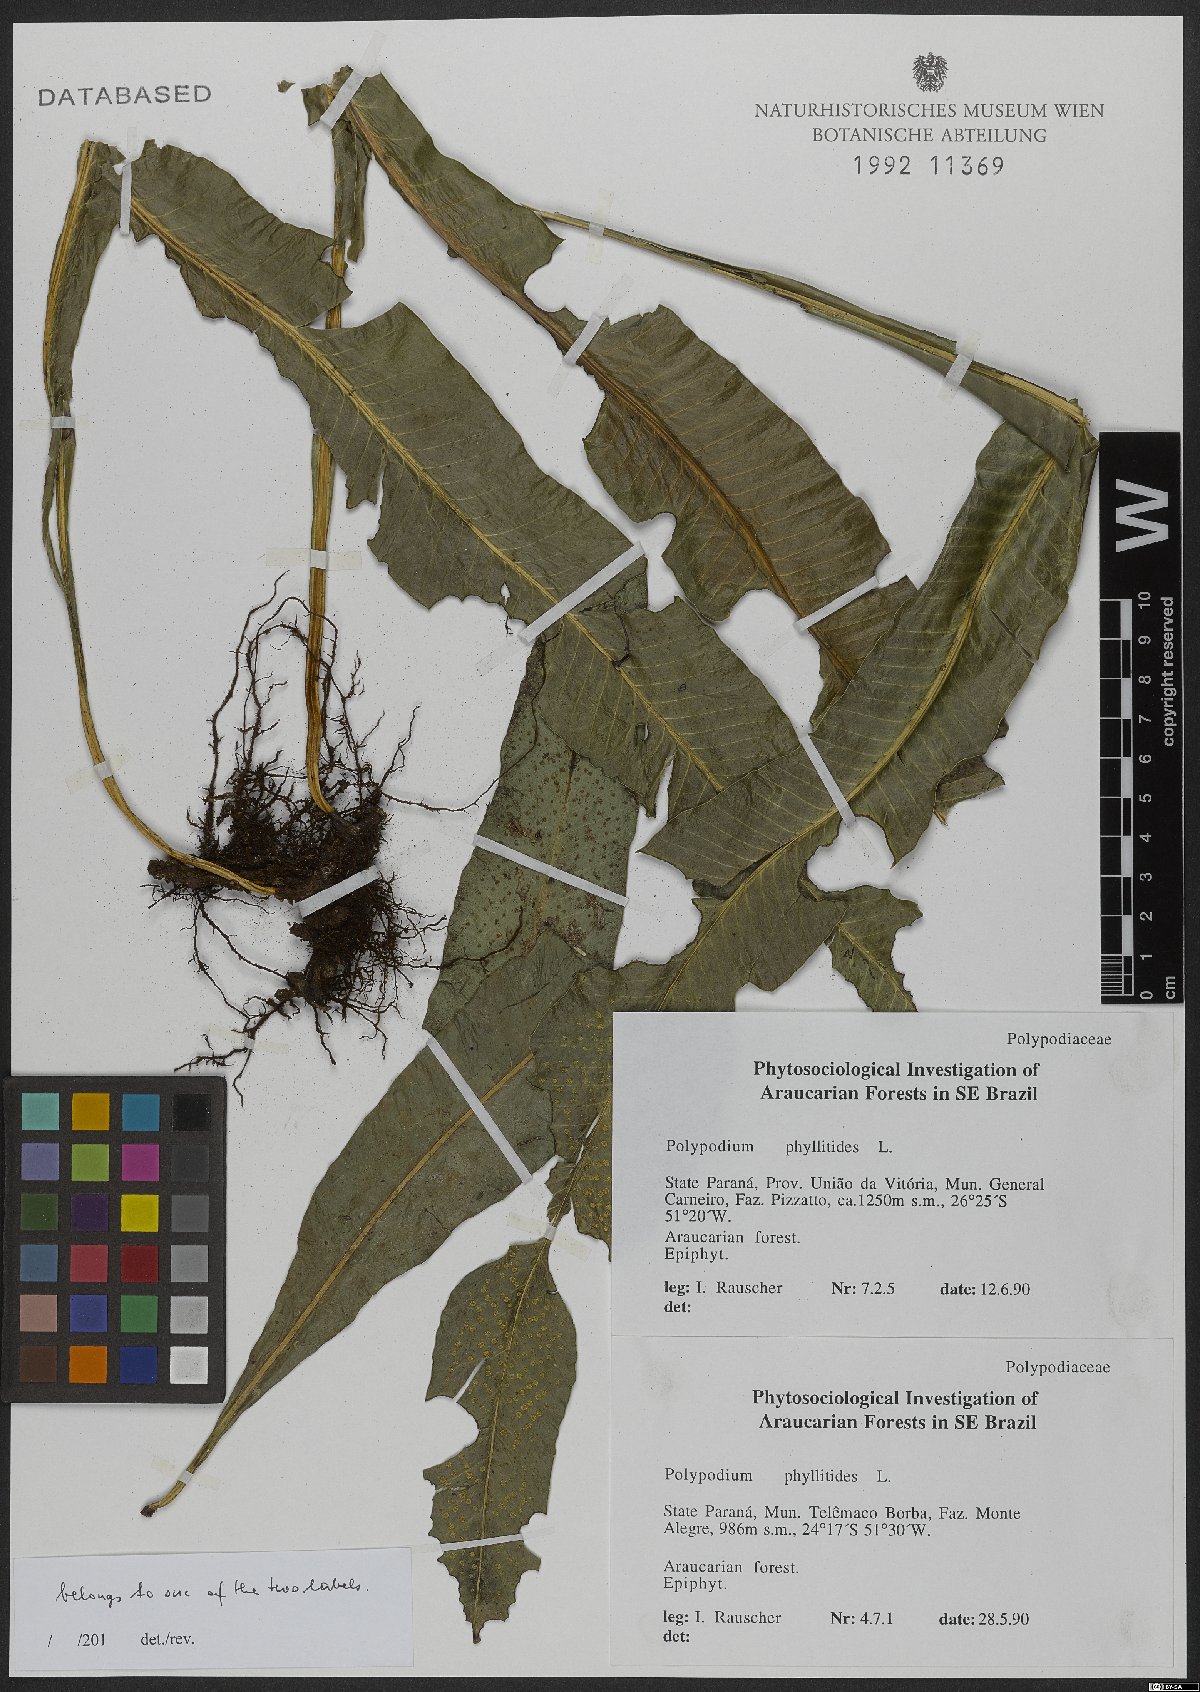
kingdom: Plantae
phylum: Tracheophyta
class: Polypodiopsida
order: Polypodiales
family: Polypodiaceae
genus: Campyloneurum
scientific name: Campyloneurum phyllitidis
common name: Cow-tongue fern
